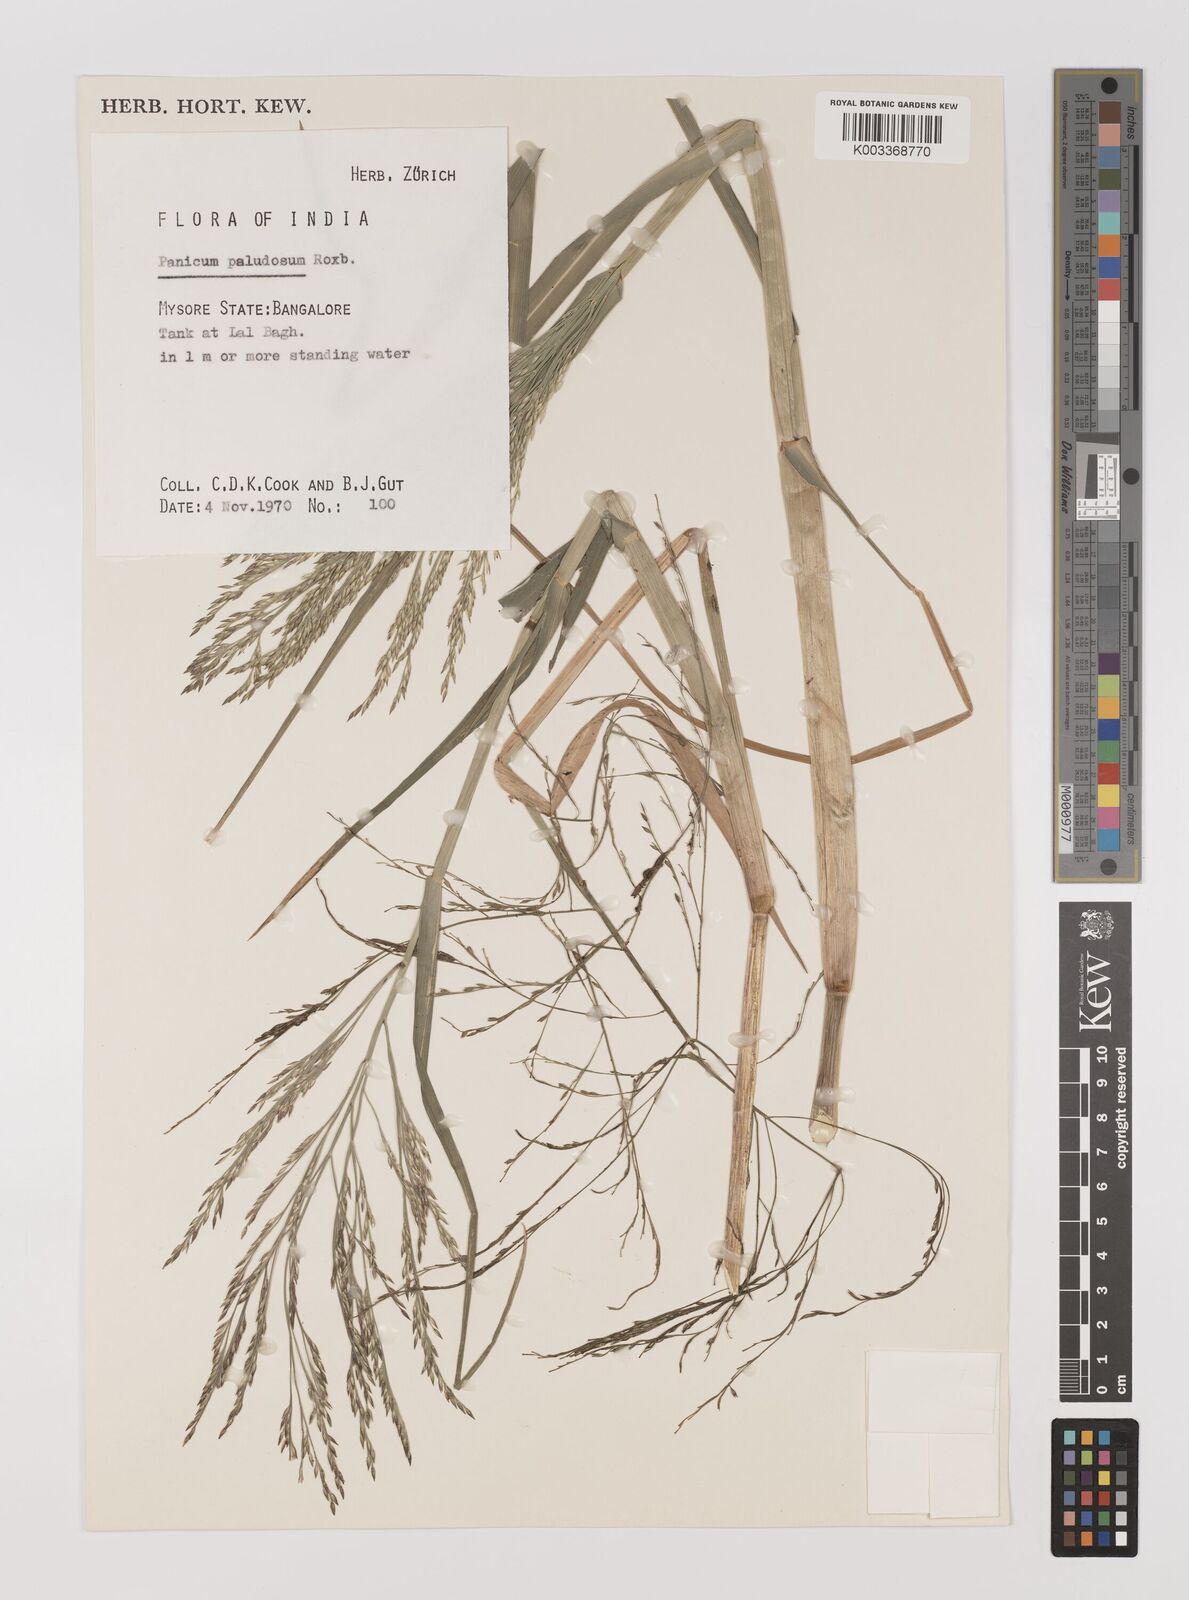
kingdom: Plantae
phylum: Tracheophyta
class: Liliopsida
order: Poales
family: Poaceae
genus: Louisiella
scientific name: Louisiella paludosa
